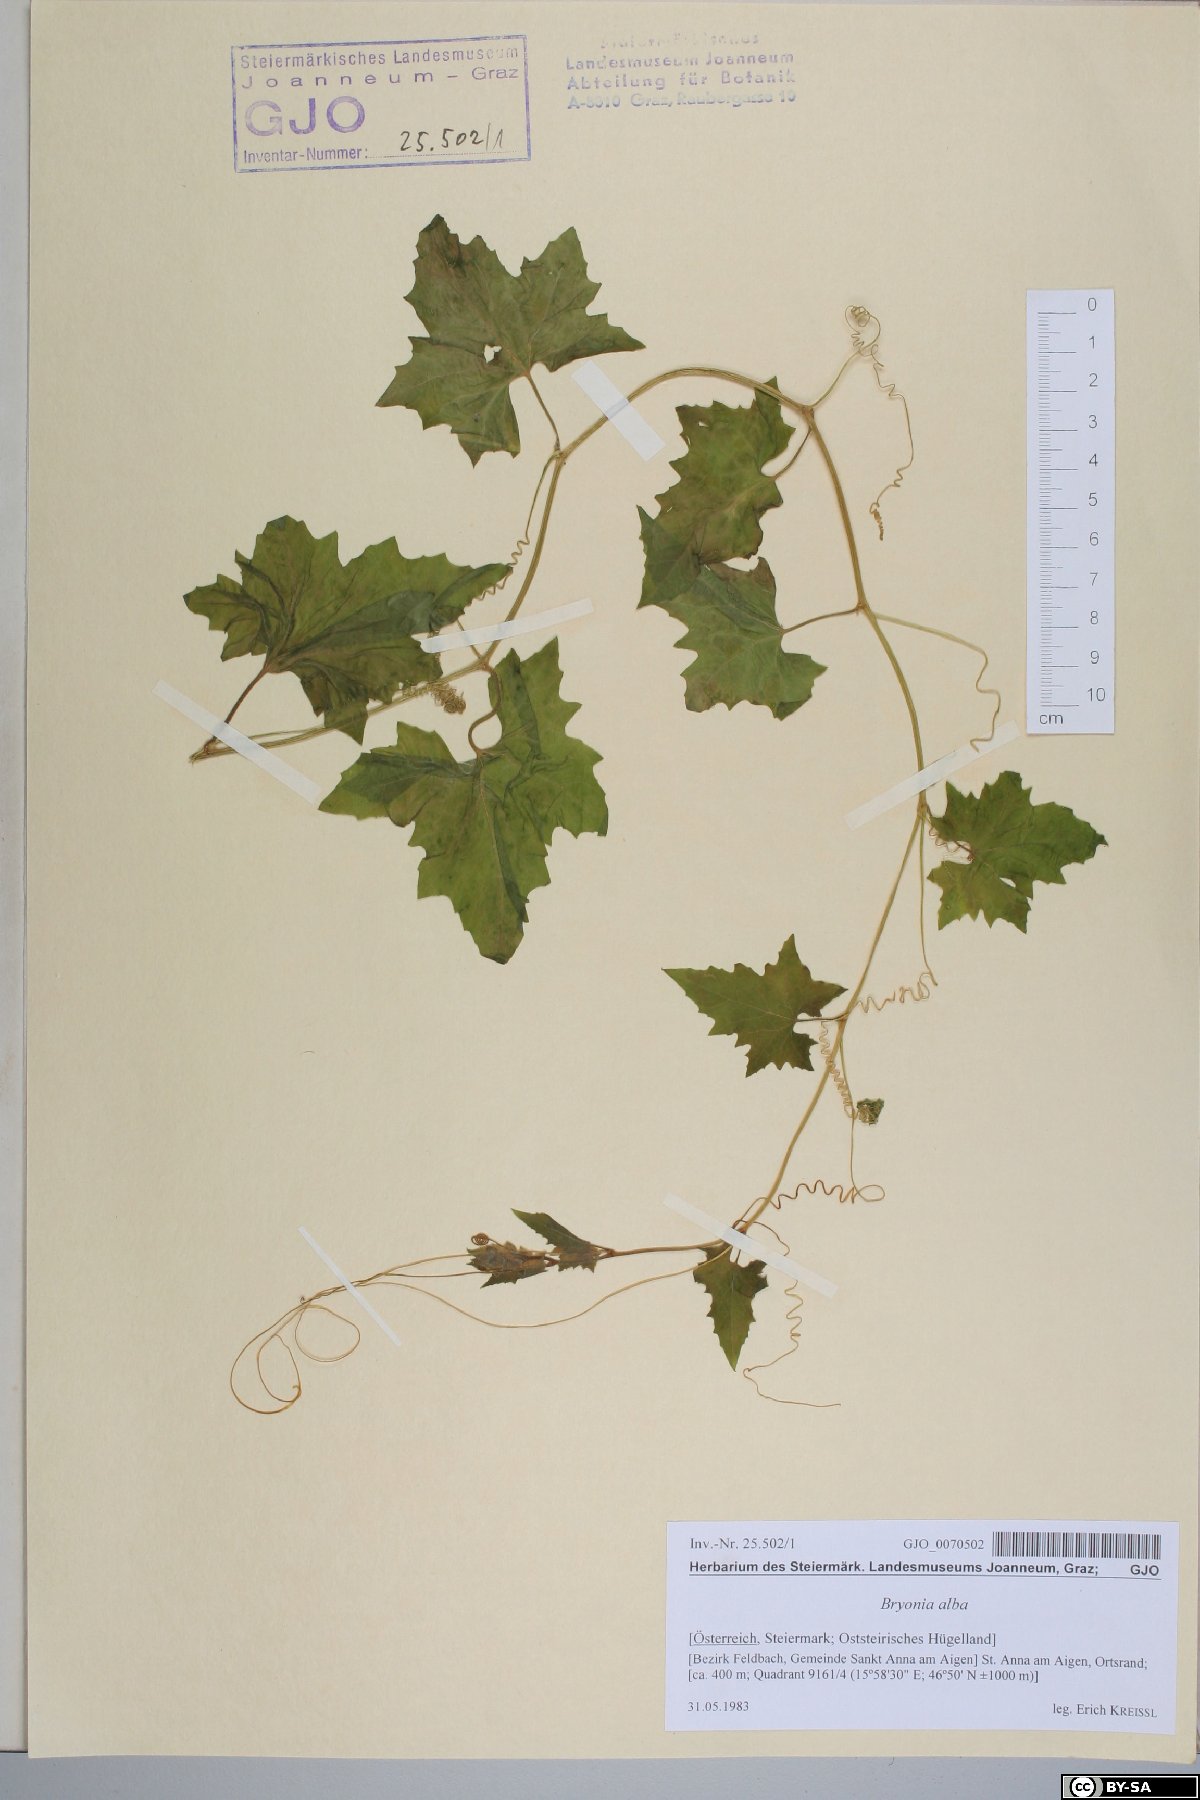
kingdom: Plantae
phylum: Tracheophyta
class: Magnoliopsida
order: Cucurbitales
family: Cucurbitaceae
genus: Bryonia
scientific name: Bryonia alba
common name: White bryony
